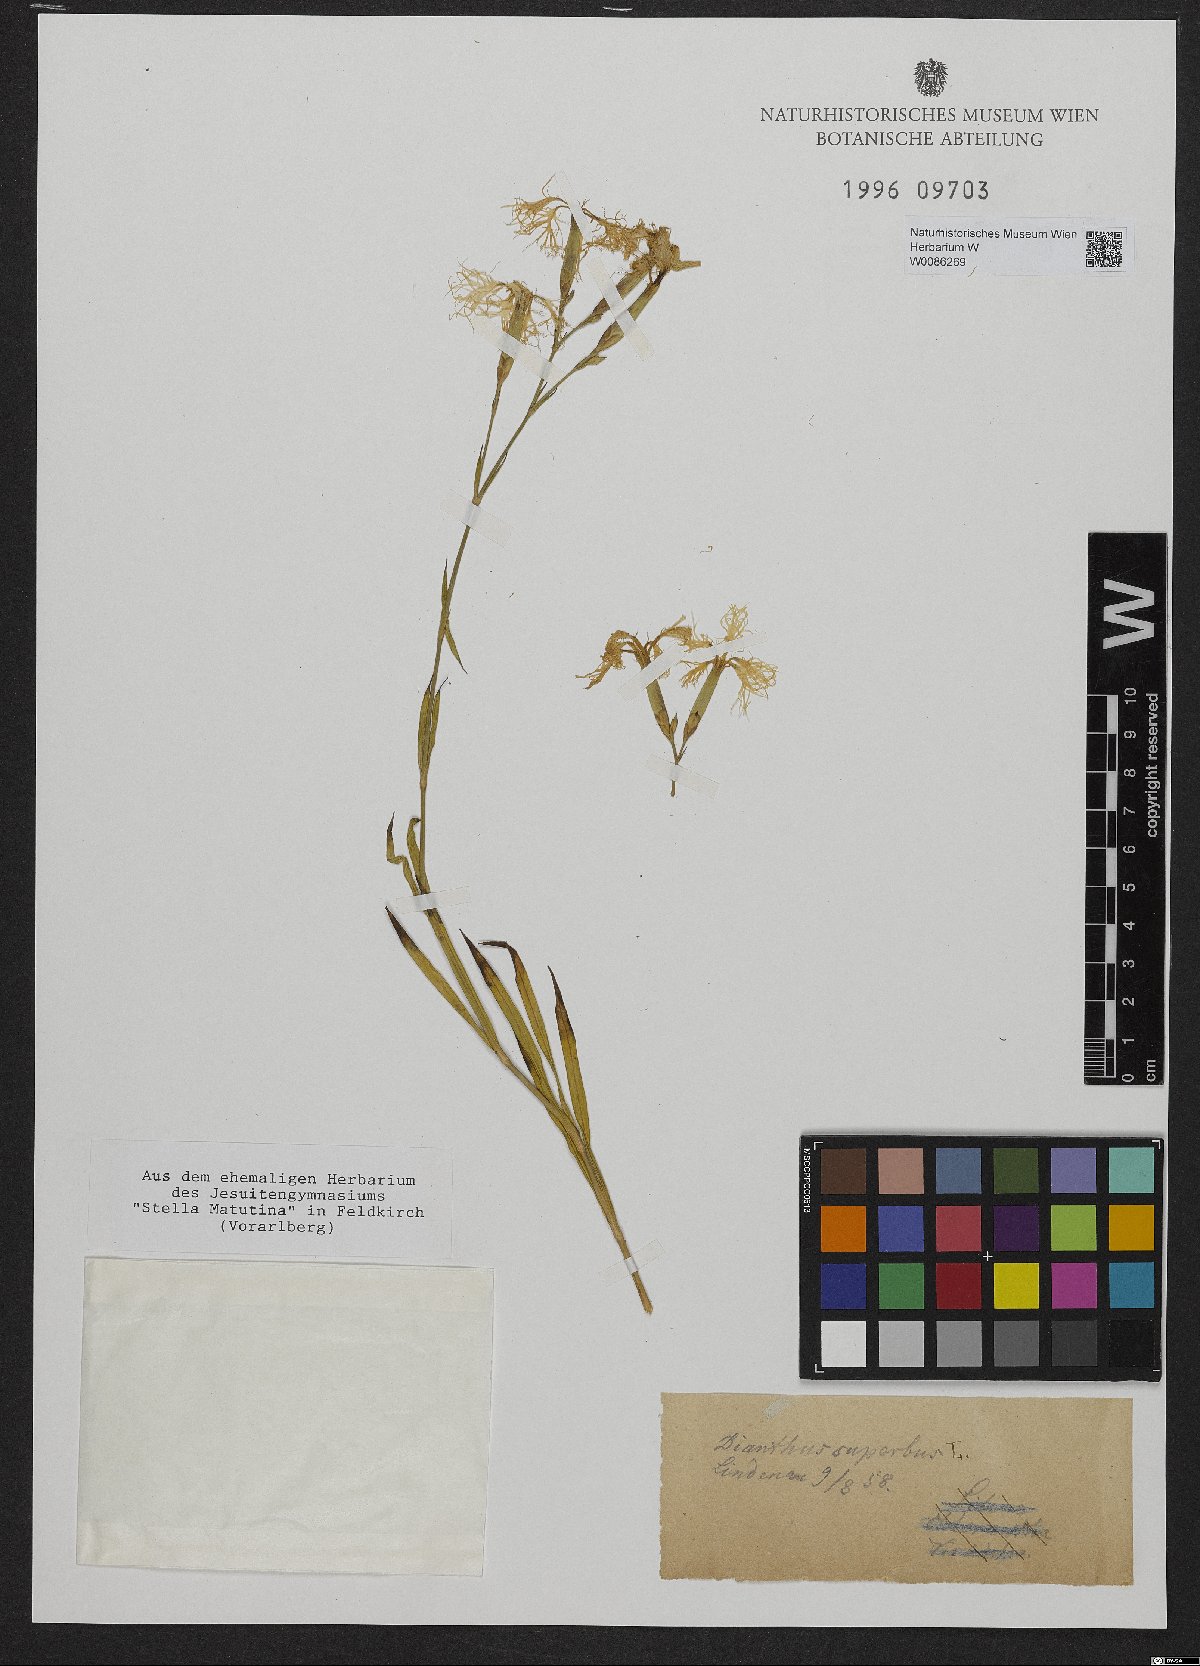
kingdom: Plantae
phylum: Tracheophyta
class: Magnoliopsida
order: Caryophyllales
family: Caryophyllaceae
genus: Dianthus
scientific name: Dianthus superbus
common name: Fringed pink
